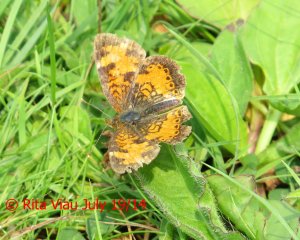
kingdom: Animalia
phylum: Arthropoda
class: Insecta
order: Lepidoptera
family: Nymphalidae
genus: Phyciodes
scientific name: Phyciodes tharos
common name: Northern Crescent
